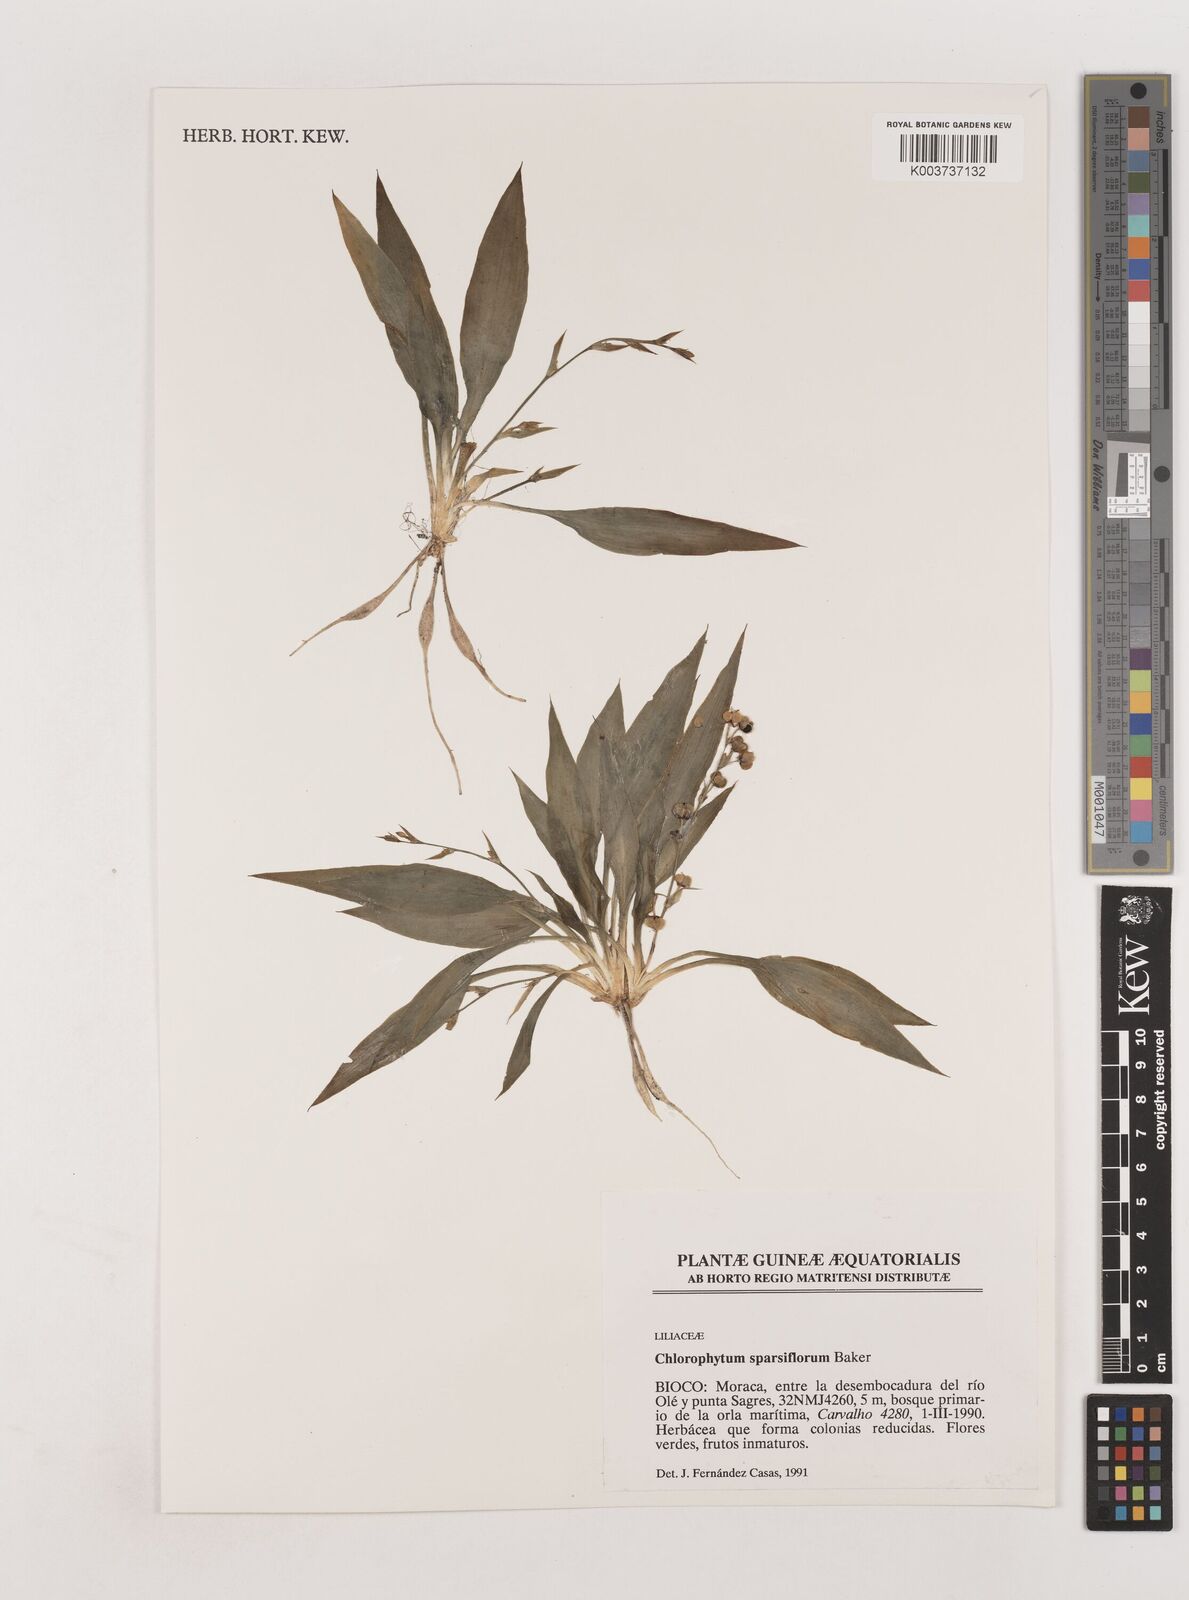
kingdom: Plantae
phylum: Tracheophyta
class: Liliopsida
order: Asparagales
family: Asparagaceae
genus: Chlorophytum
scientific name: Chlorophytum sparsiflorum
